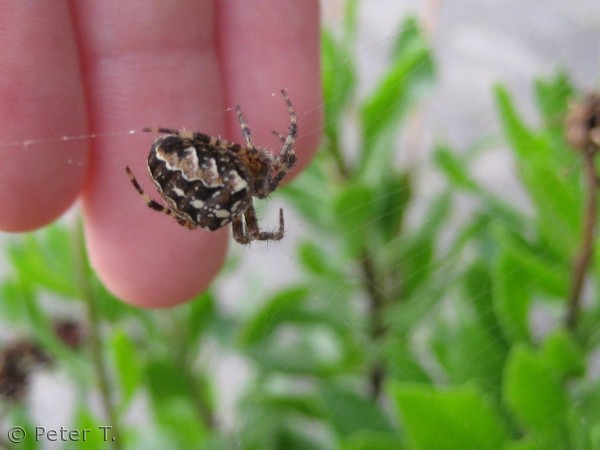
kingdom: Animalia
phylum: Arthropoda
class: Arachnida
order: Araneae
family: Araneidae
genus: Araneus
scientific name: Araneus diadematus
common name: Korsedderkop
